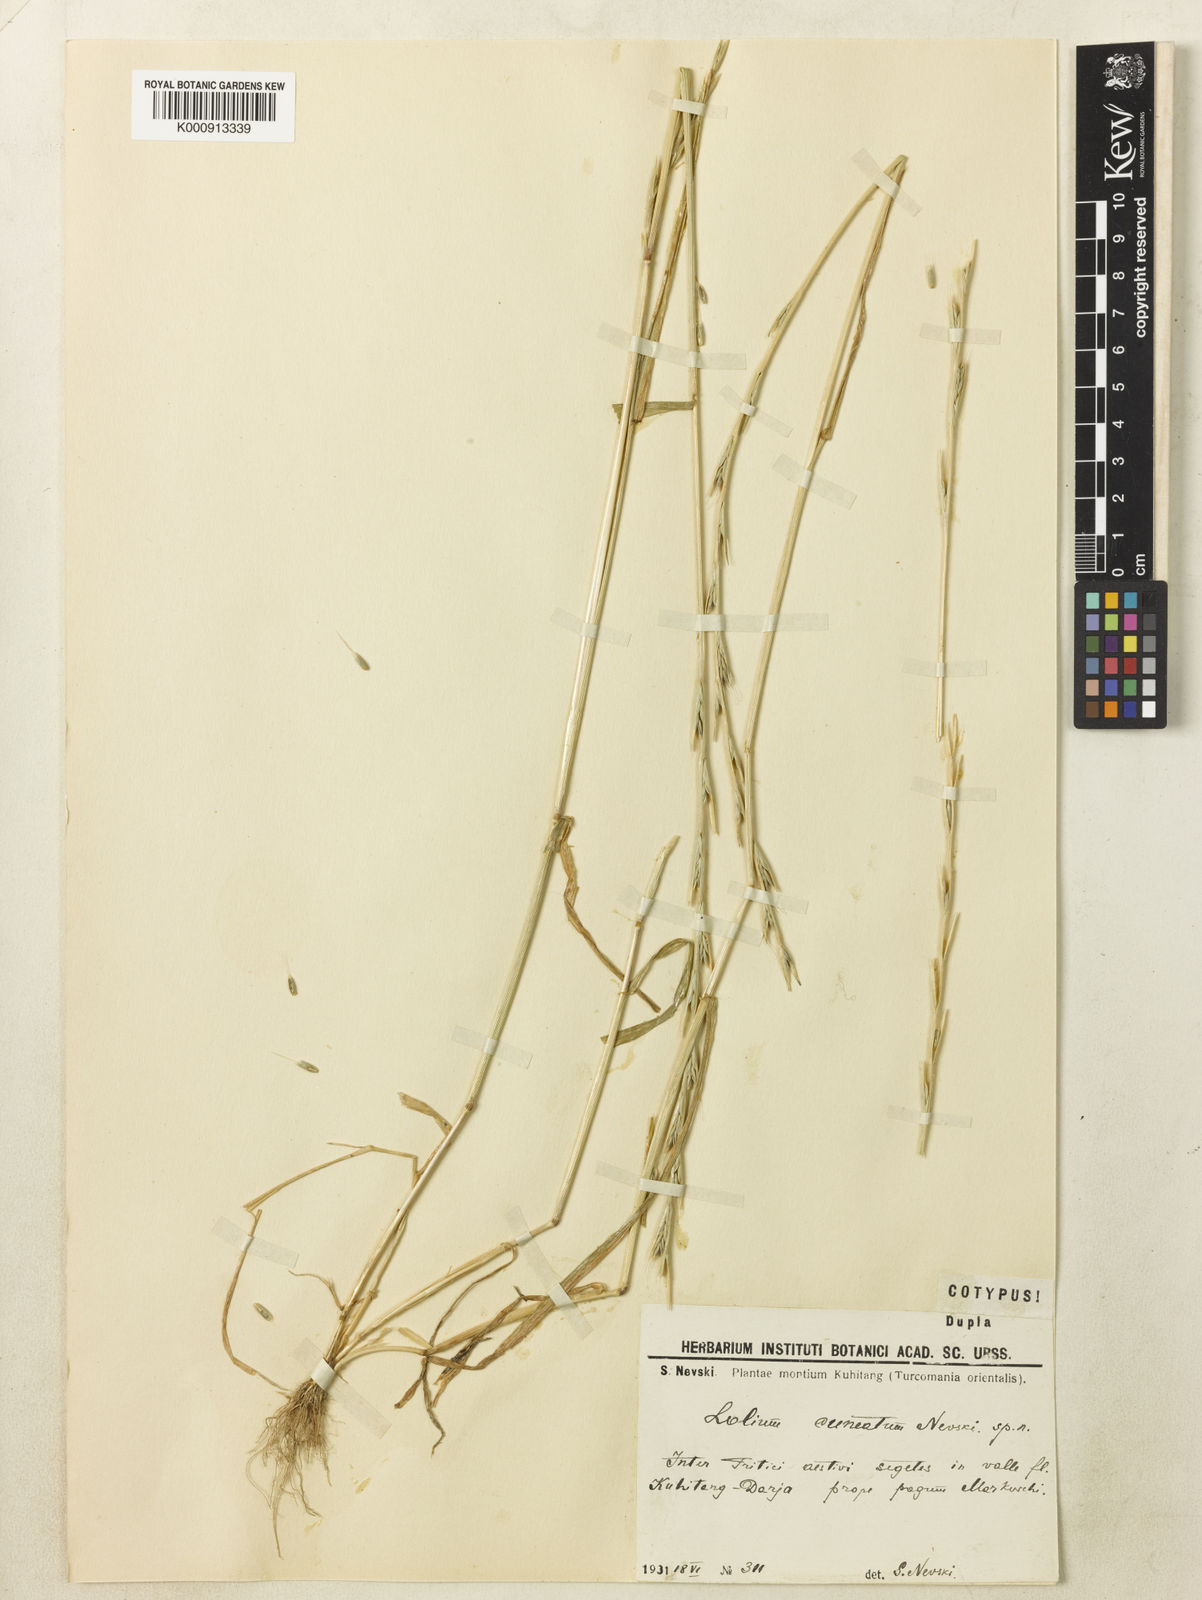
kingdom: Plantae
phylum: Tracheophyta
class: Liliopsida
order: Poales
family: Poaceae
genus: Lolium
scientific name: Lolium temulentum
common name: Darnel
